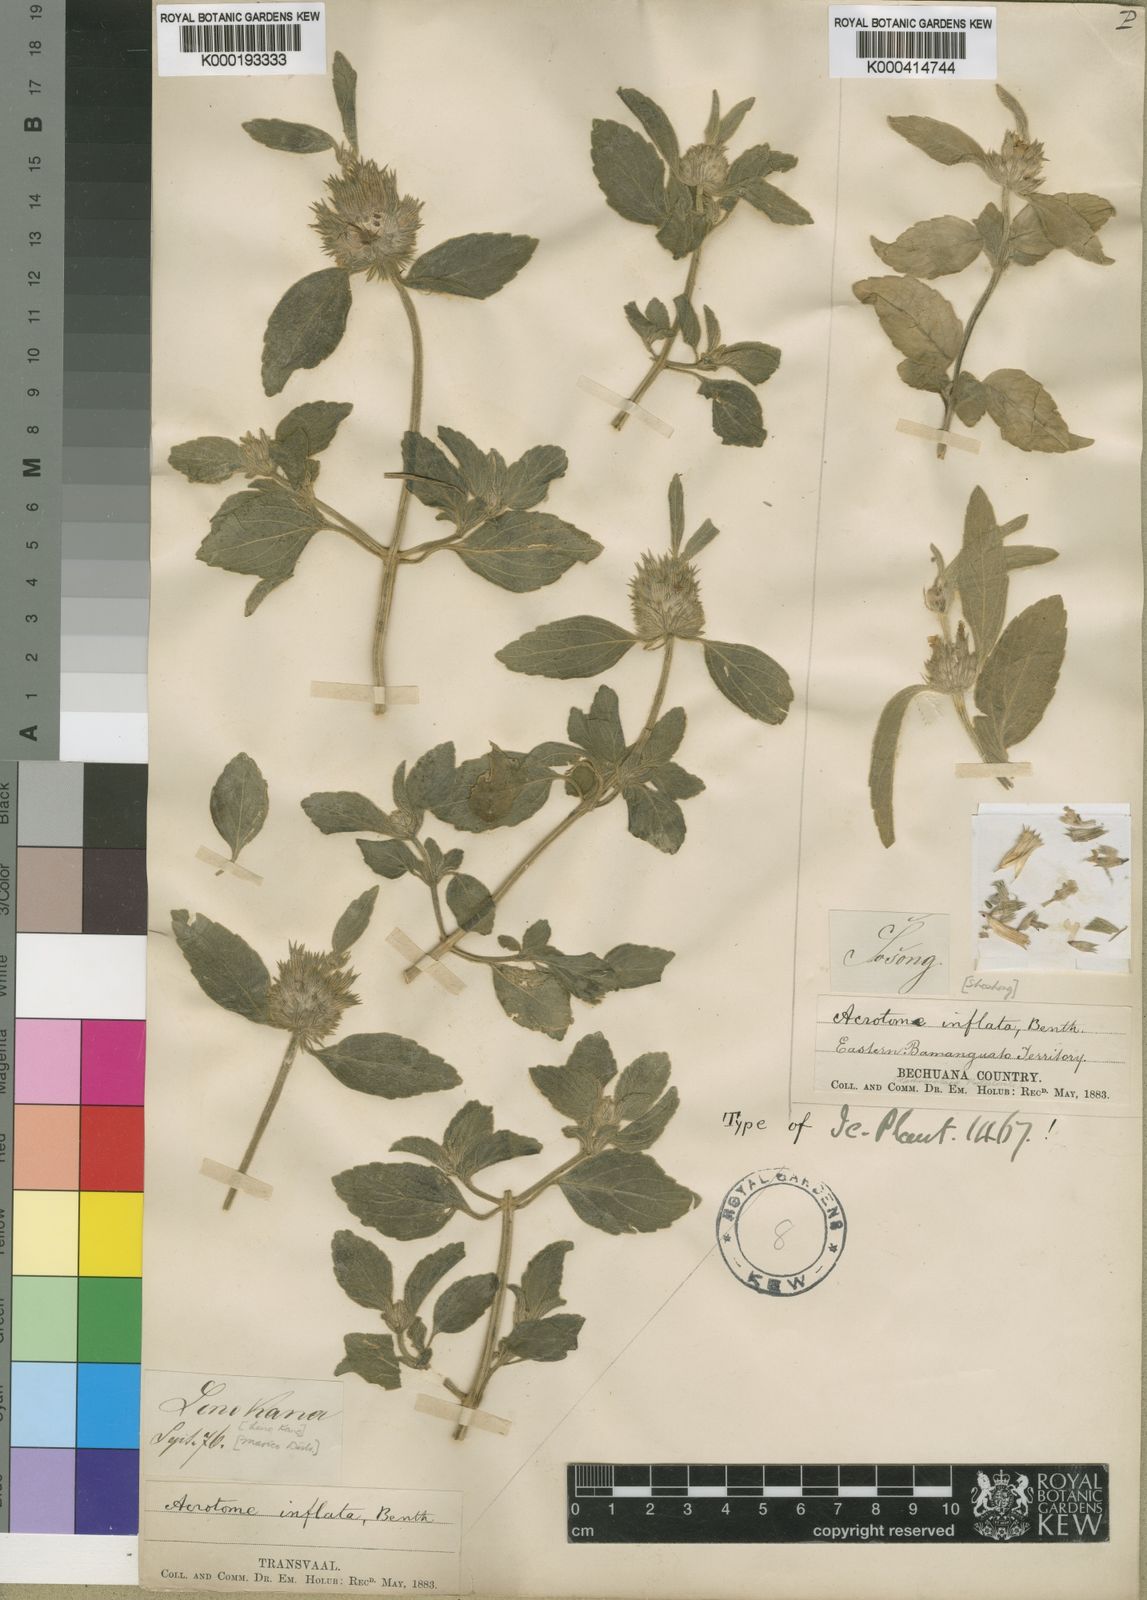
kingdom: Plantae
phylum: Tracheophyta
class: Magnoliopsida
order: Lamiales
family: Lamiaceae
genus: Acrotome
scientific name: Acrotome inflata
